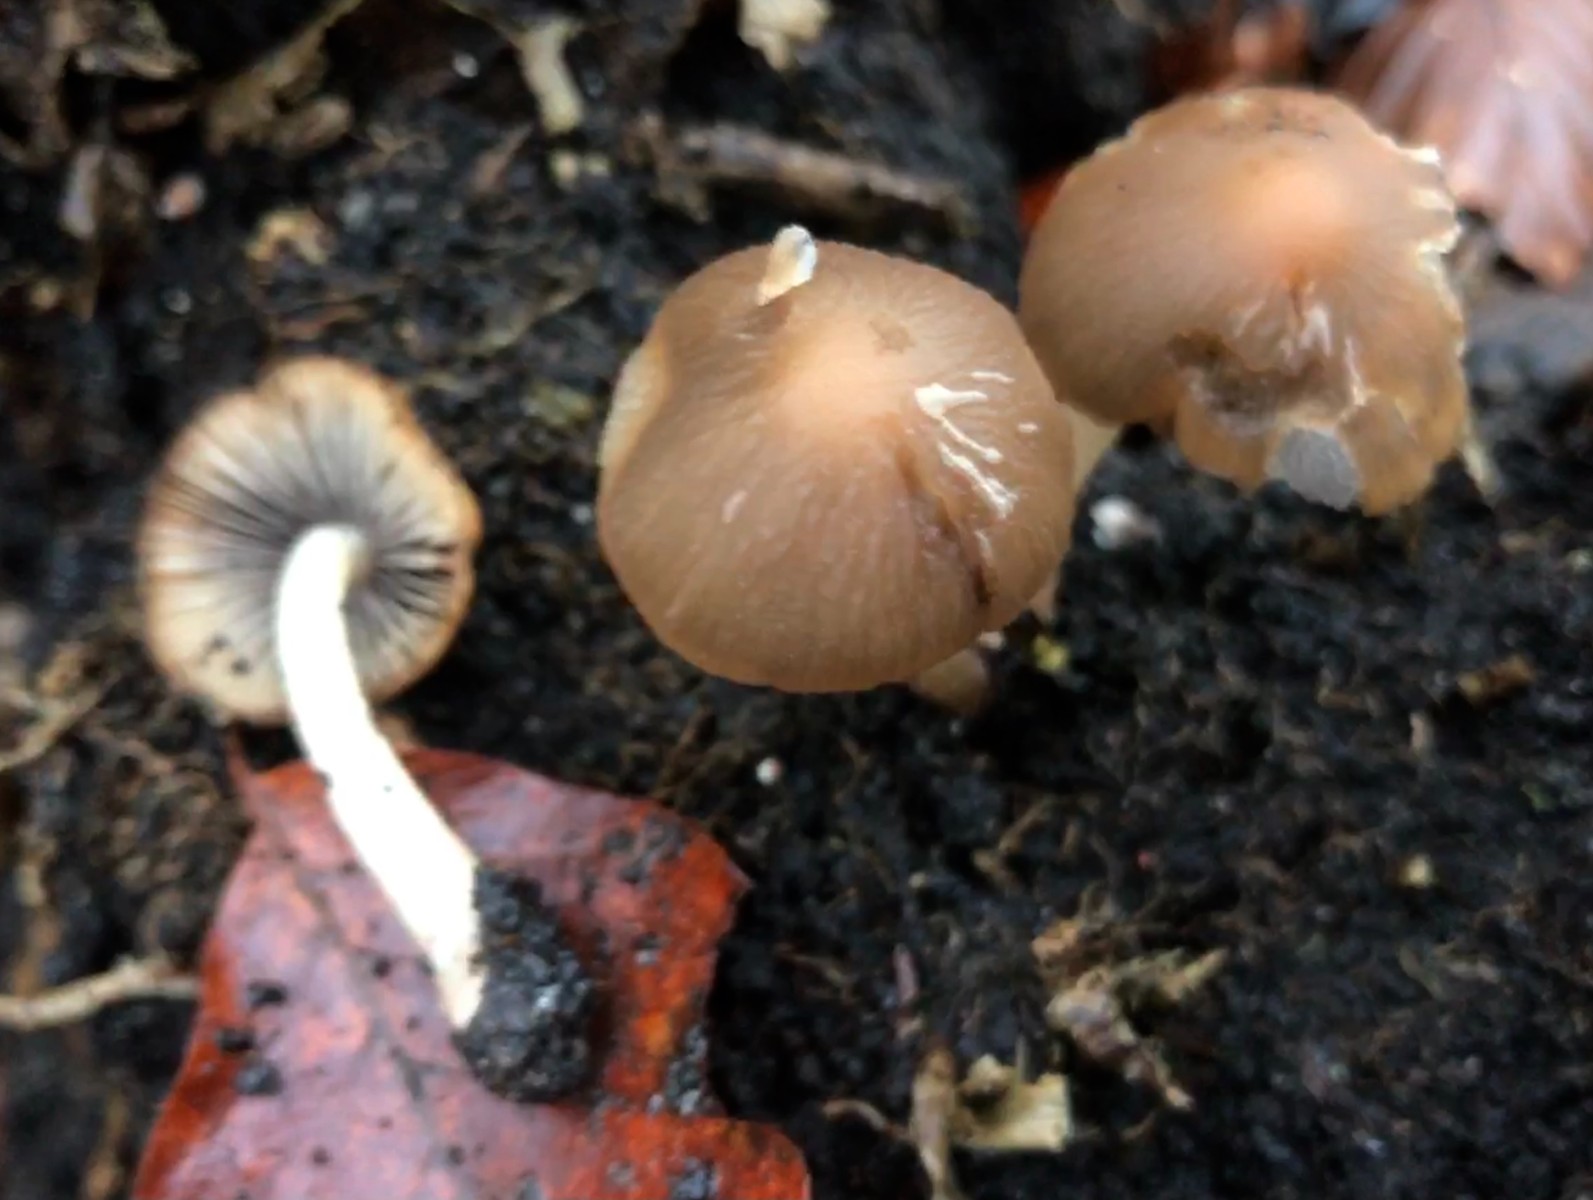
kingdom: Fungi
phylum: Basidiomycota
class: Agaricomycetes
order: Agaricales
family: Psathyrellaceae
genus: Psathyrella
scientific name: Psathyrella piluliformis
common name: lysstokket mørkhat
